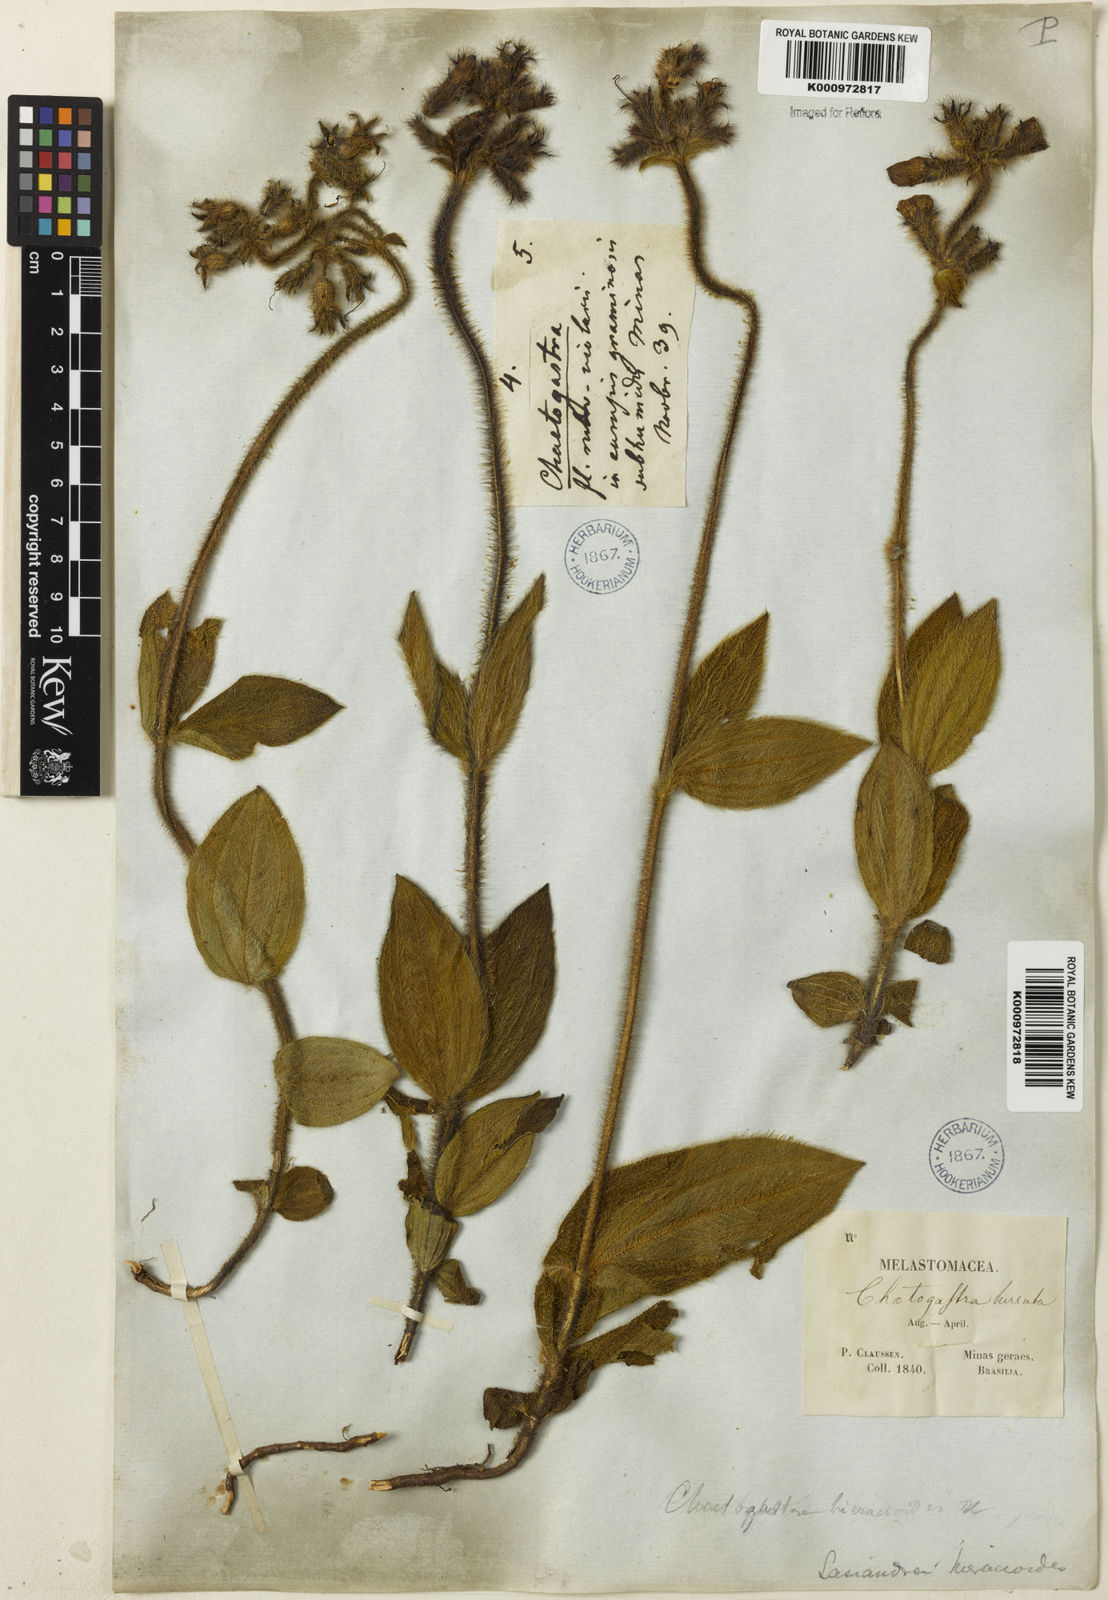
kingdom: Plantae
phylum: Tracheophyta
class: Magnoliopsida
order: Myrtales
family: Melastomataceae
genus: Chaetogastra
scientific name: Chaetogastra hieracioides
